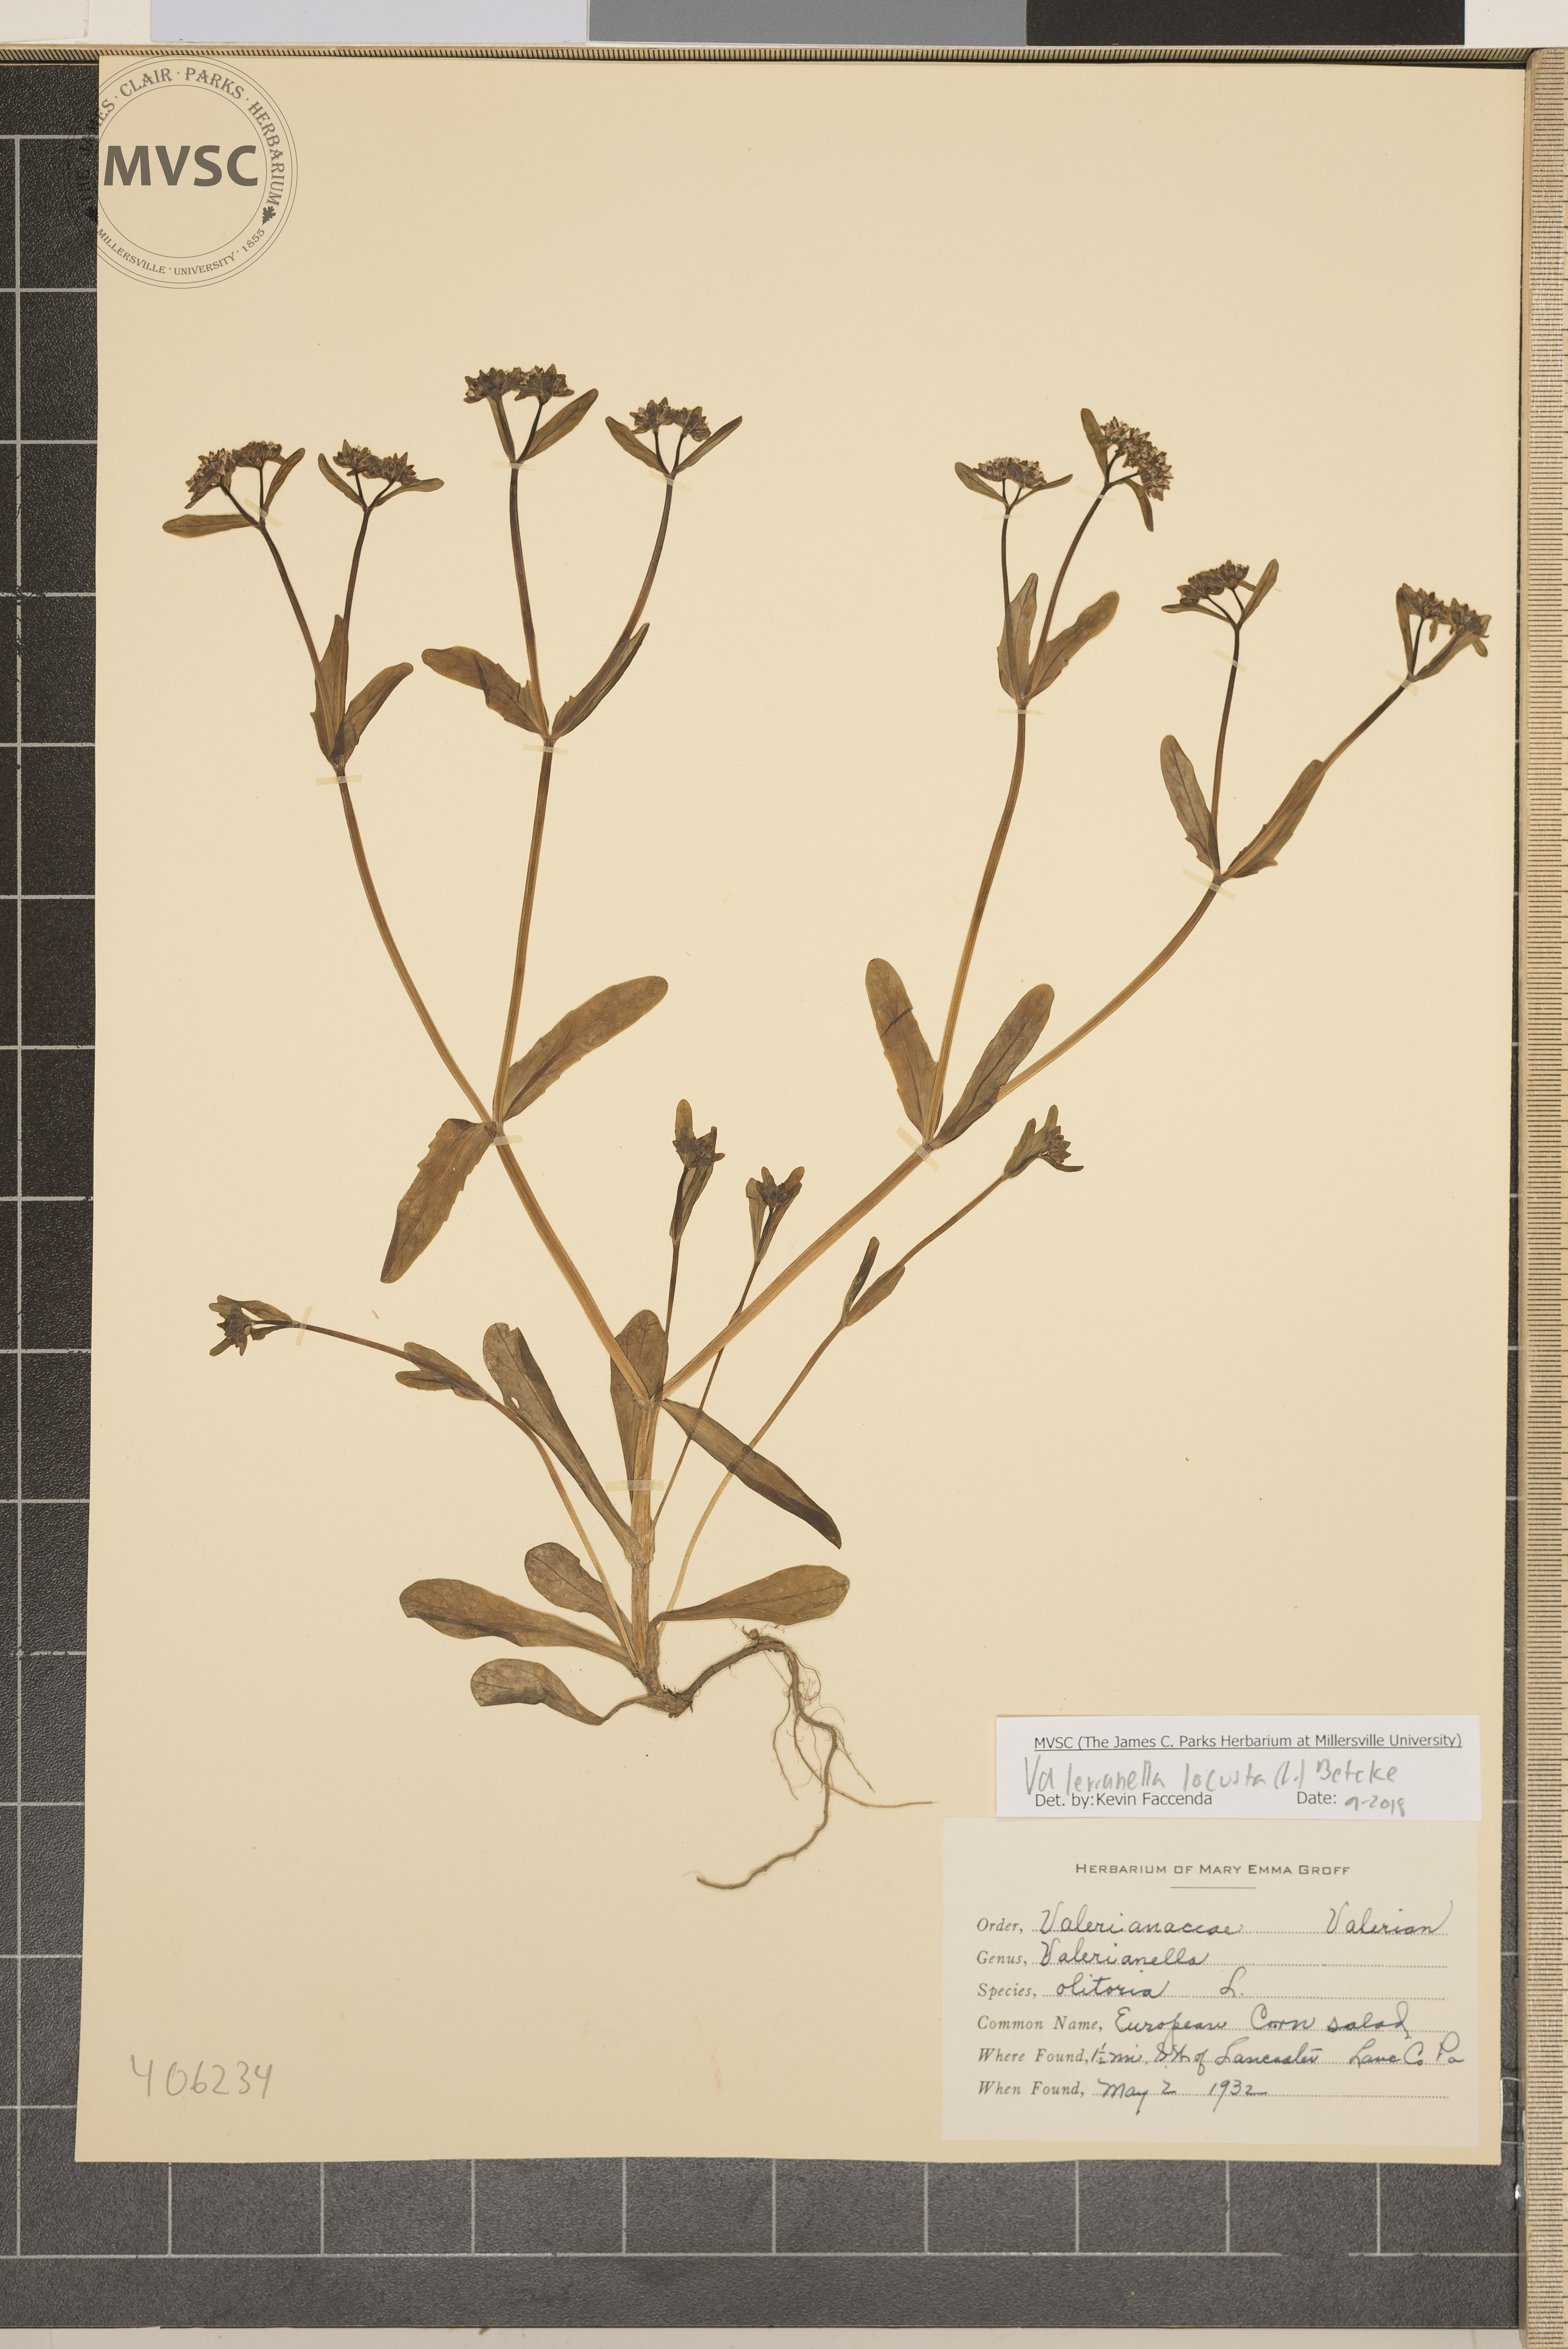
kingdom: Plantae
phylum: Tracheophyta
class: Magnoliopsida
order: Dipsacales
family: Caprifoliaceae
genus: Valerianella
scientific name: Valerianella locusta
